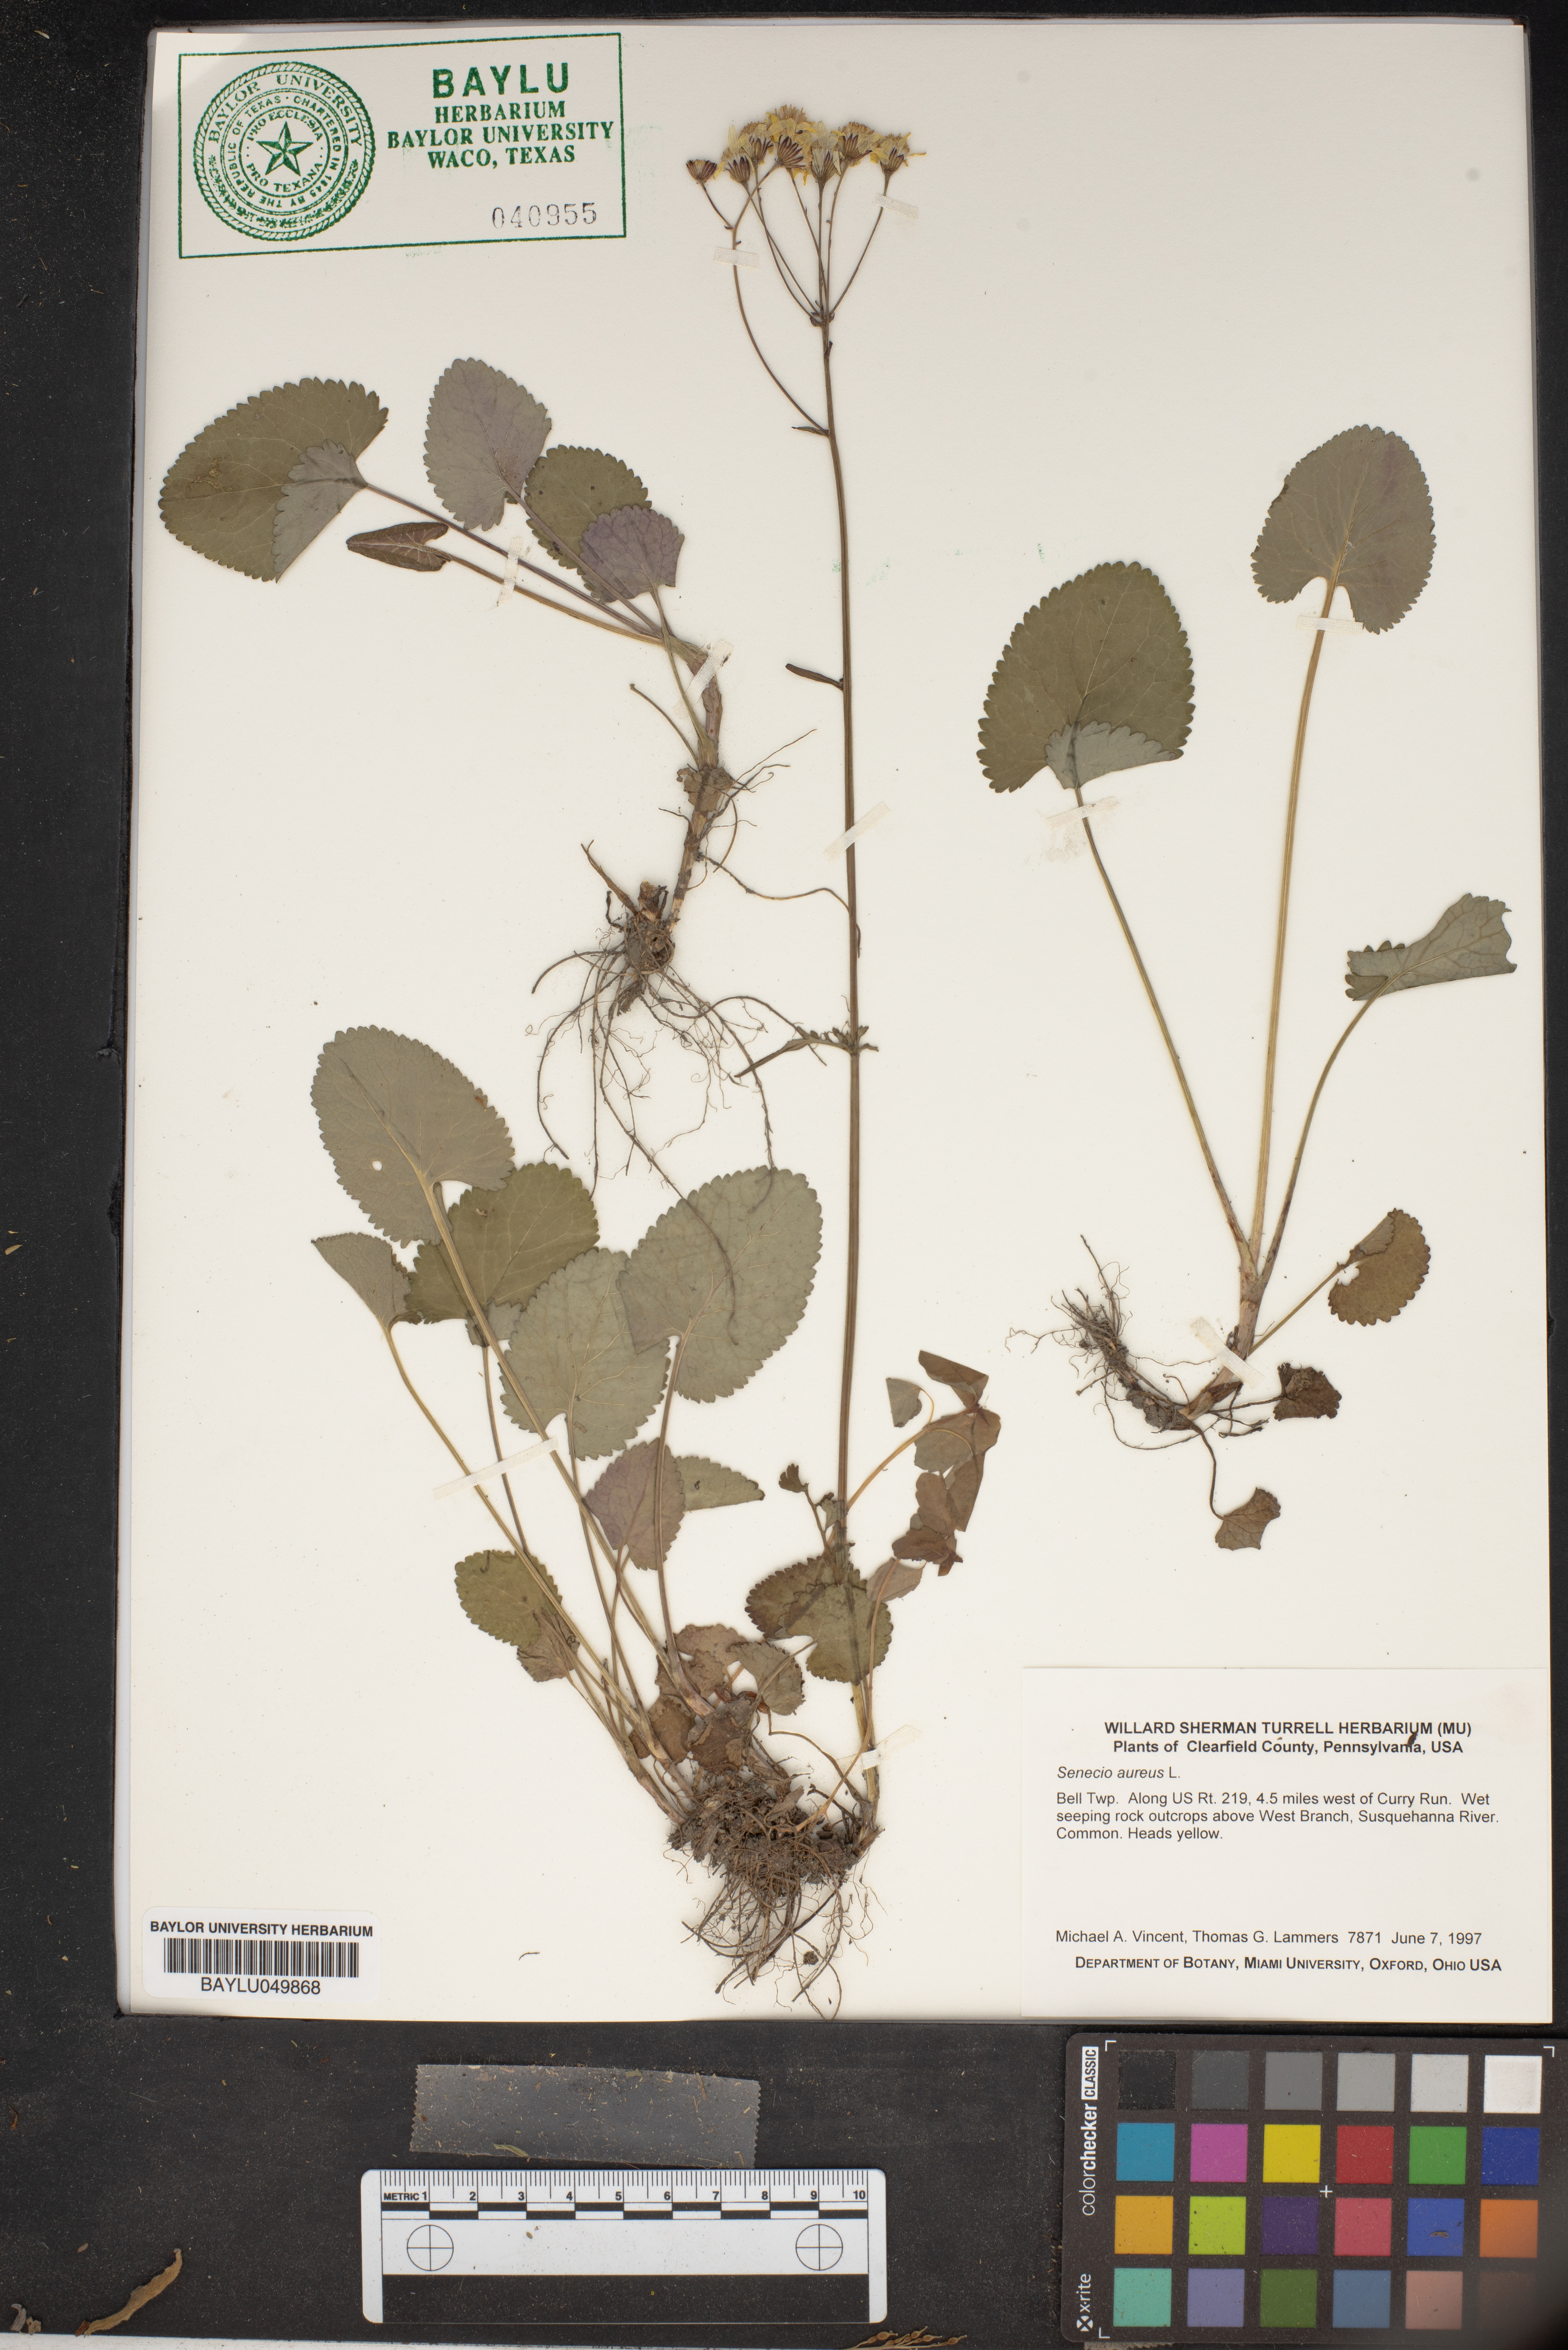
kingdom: Plantae
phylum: Tracheophyta
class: Magnoliopsida
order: Asterales
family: Asteraceae
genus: Packera
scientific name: Packera aurea
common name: Golden groundsel
